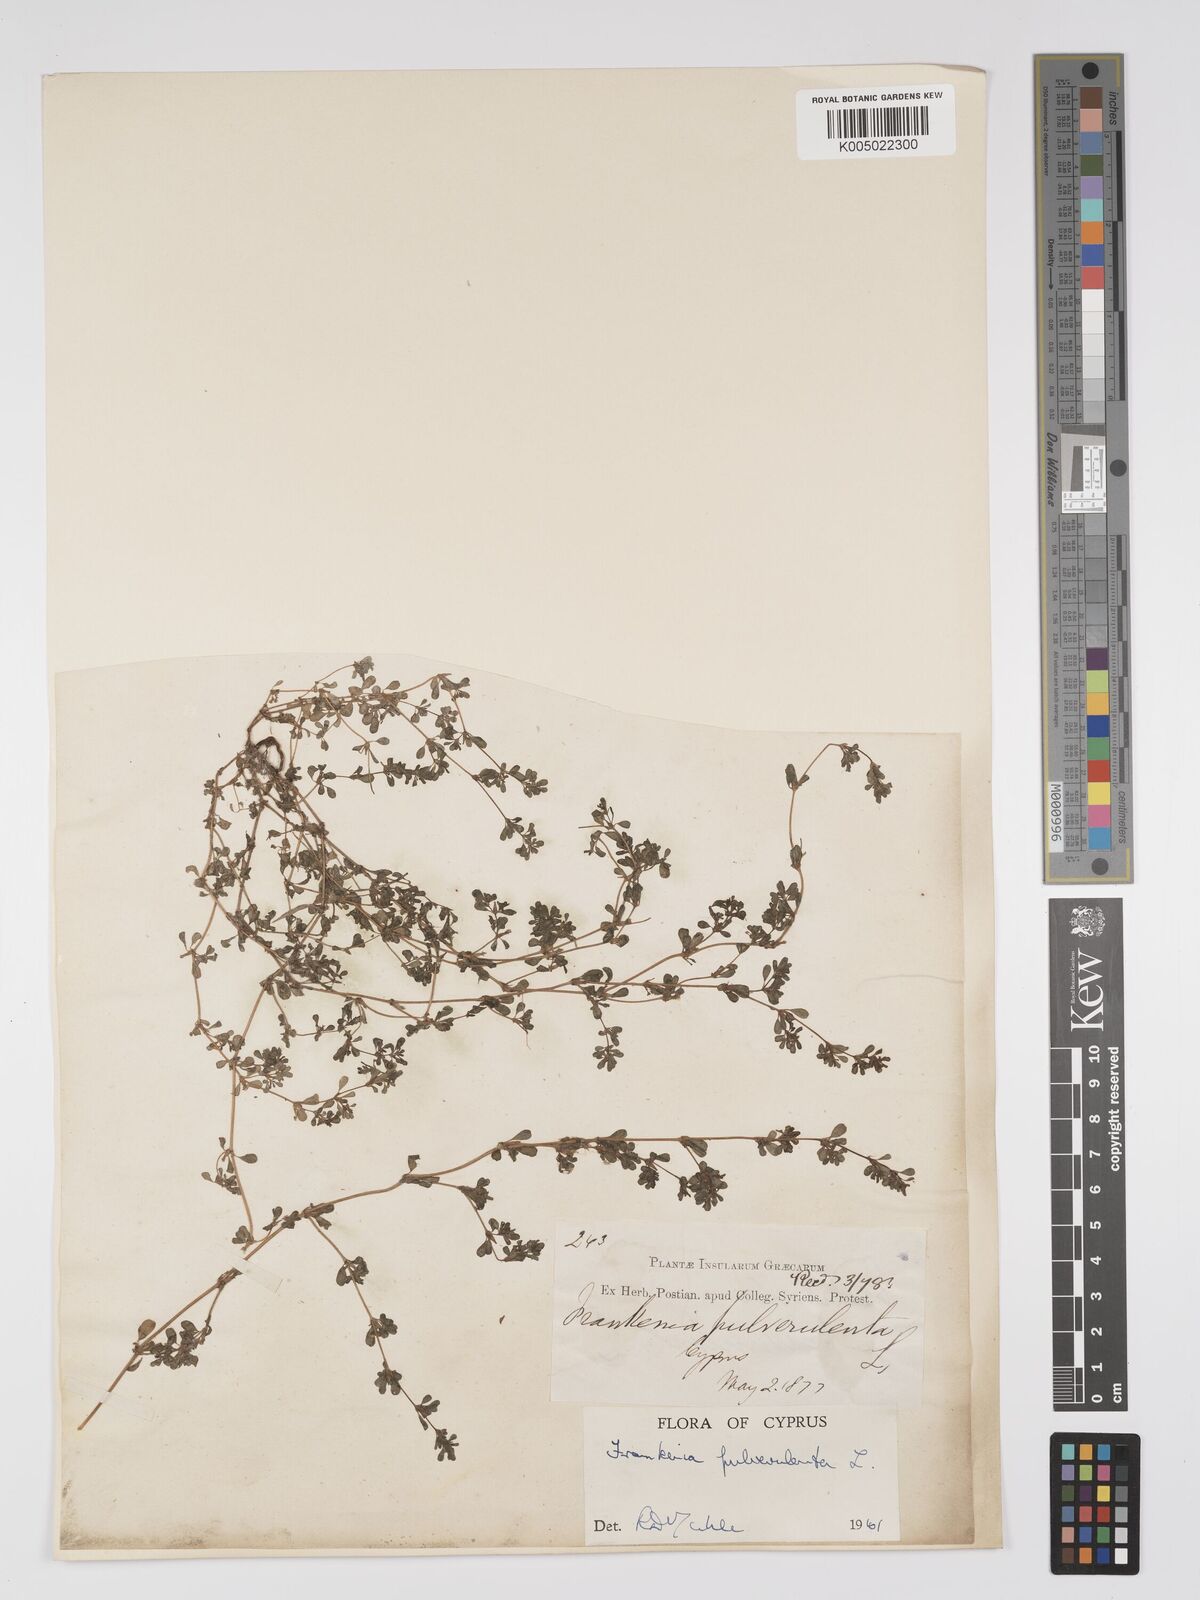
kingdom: Plantae
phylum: Tracheophyta
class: Magnoliopsida
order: Caryophyllales
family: Frankeniaceae
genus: Frankenia
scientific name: Frankenia pulverulenta
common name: European seaheath
